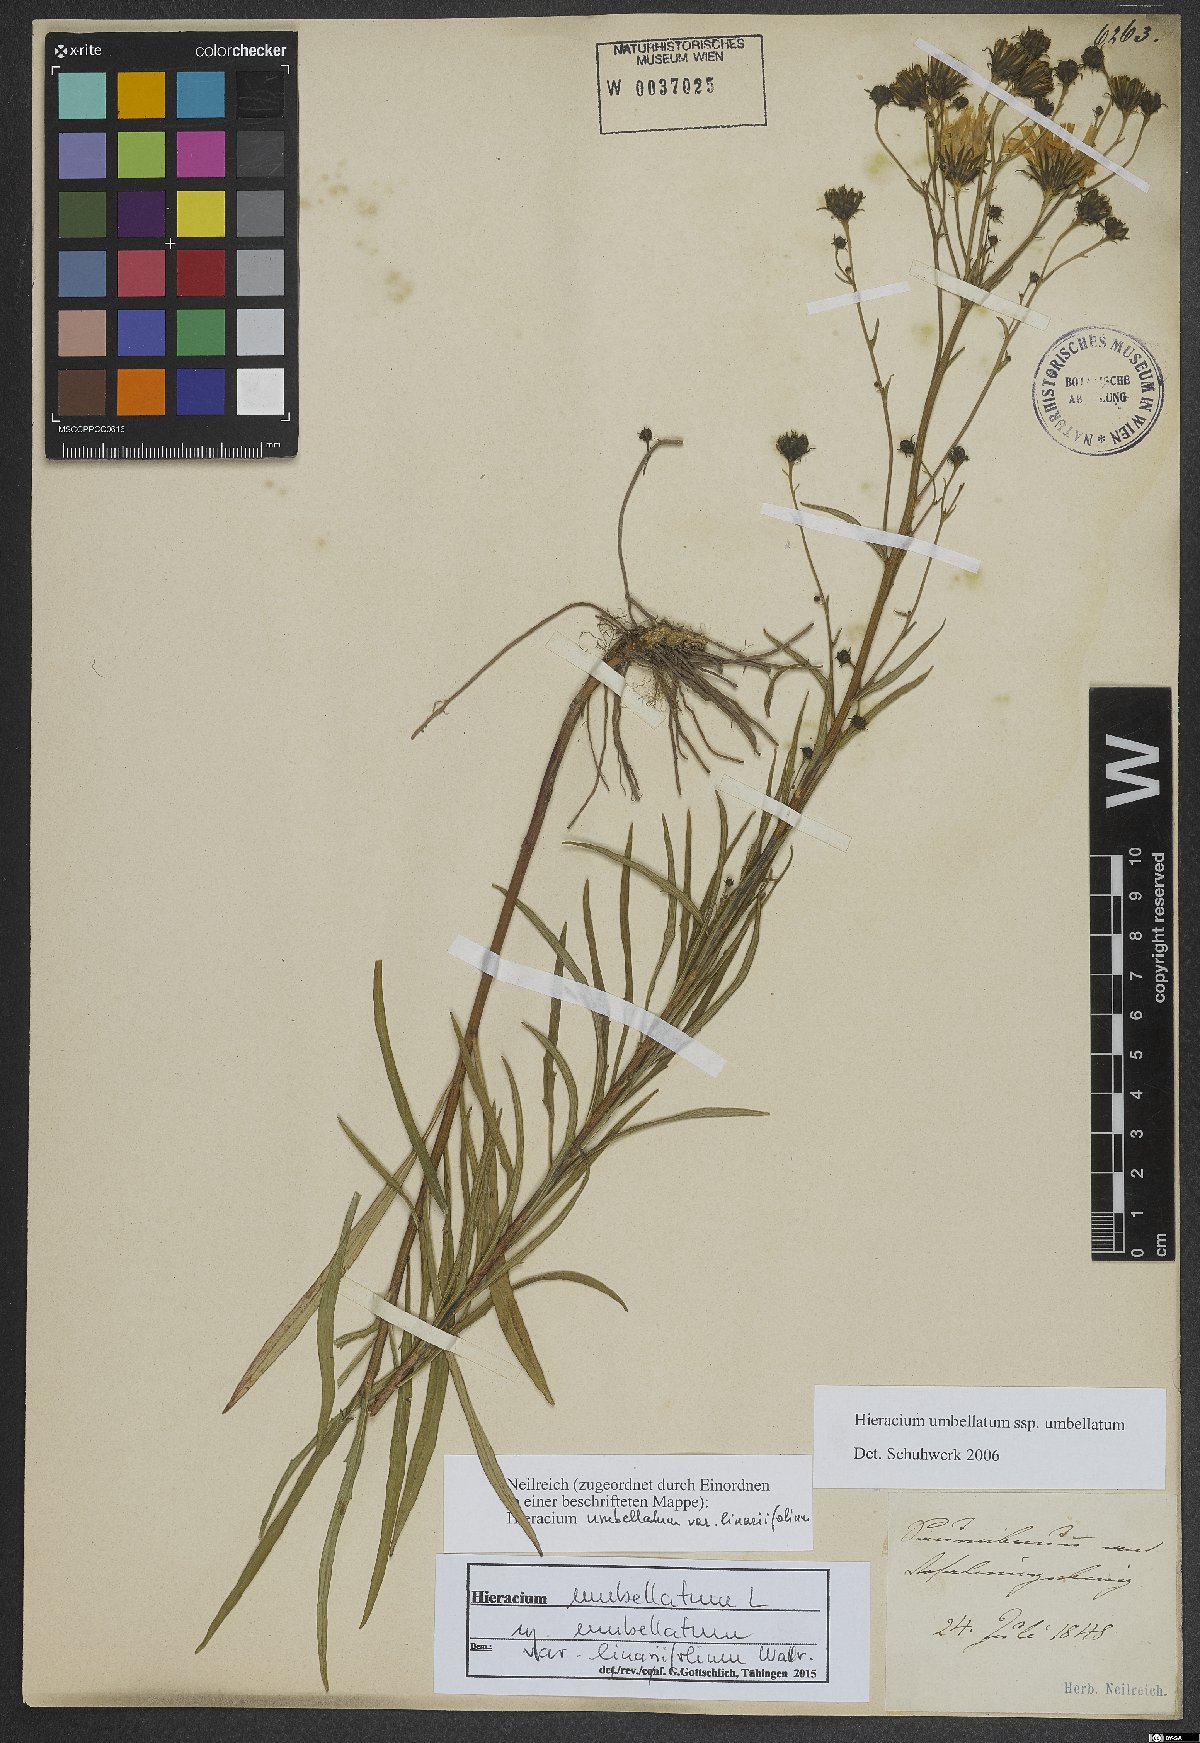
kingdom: Plantae
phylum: Tracheophyta
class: Magnoliopsida
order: Asterales
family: Asteraceae
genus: Hieracium
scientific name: Hieracium umbellatum
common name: Northern hawkweed
